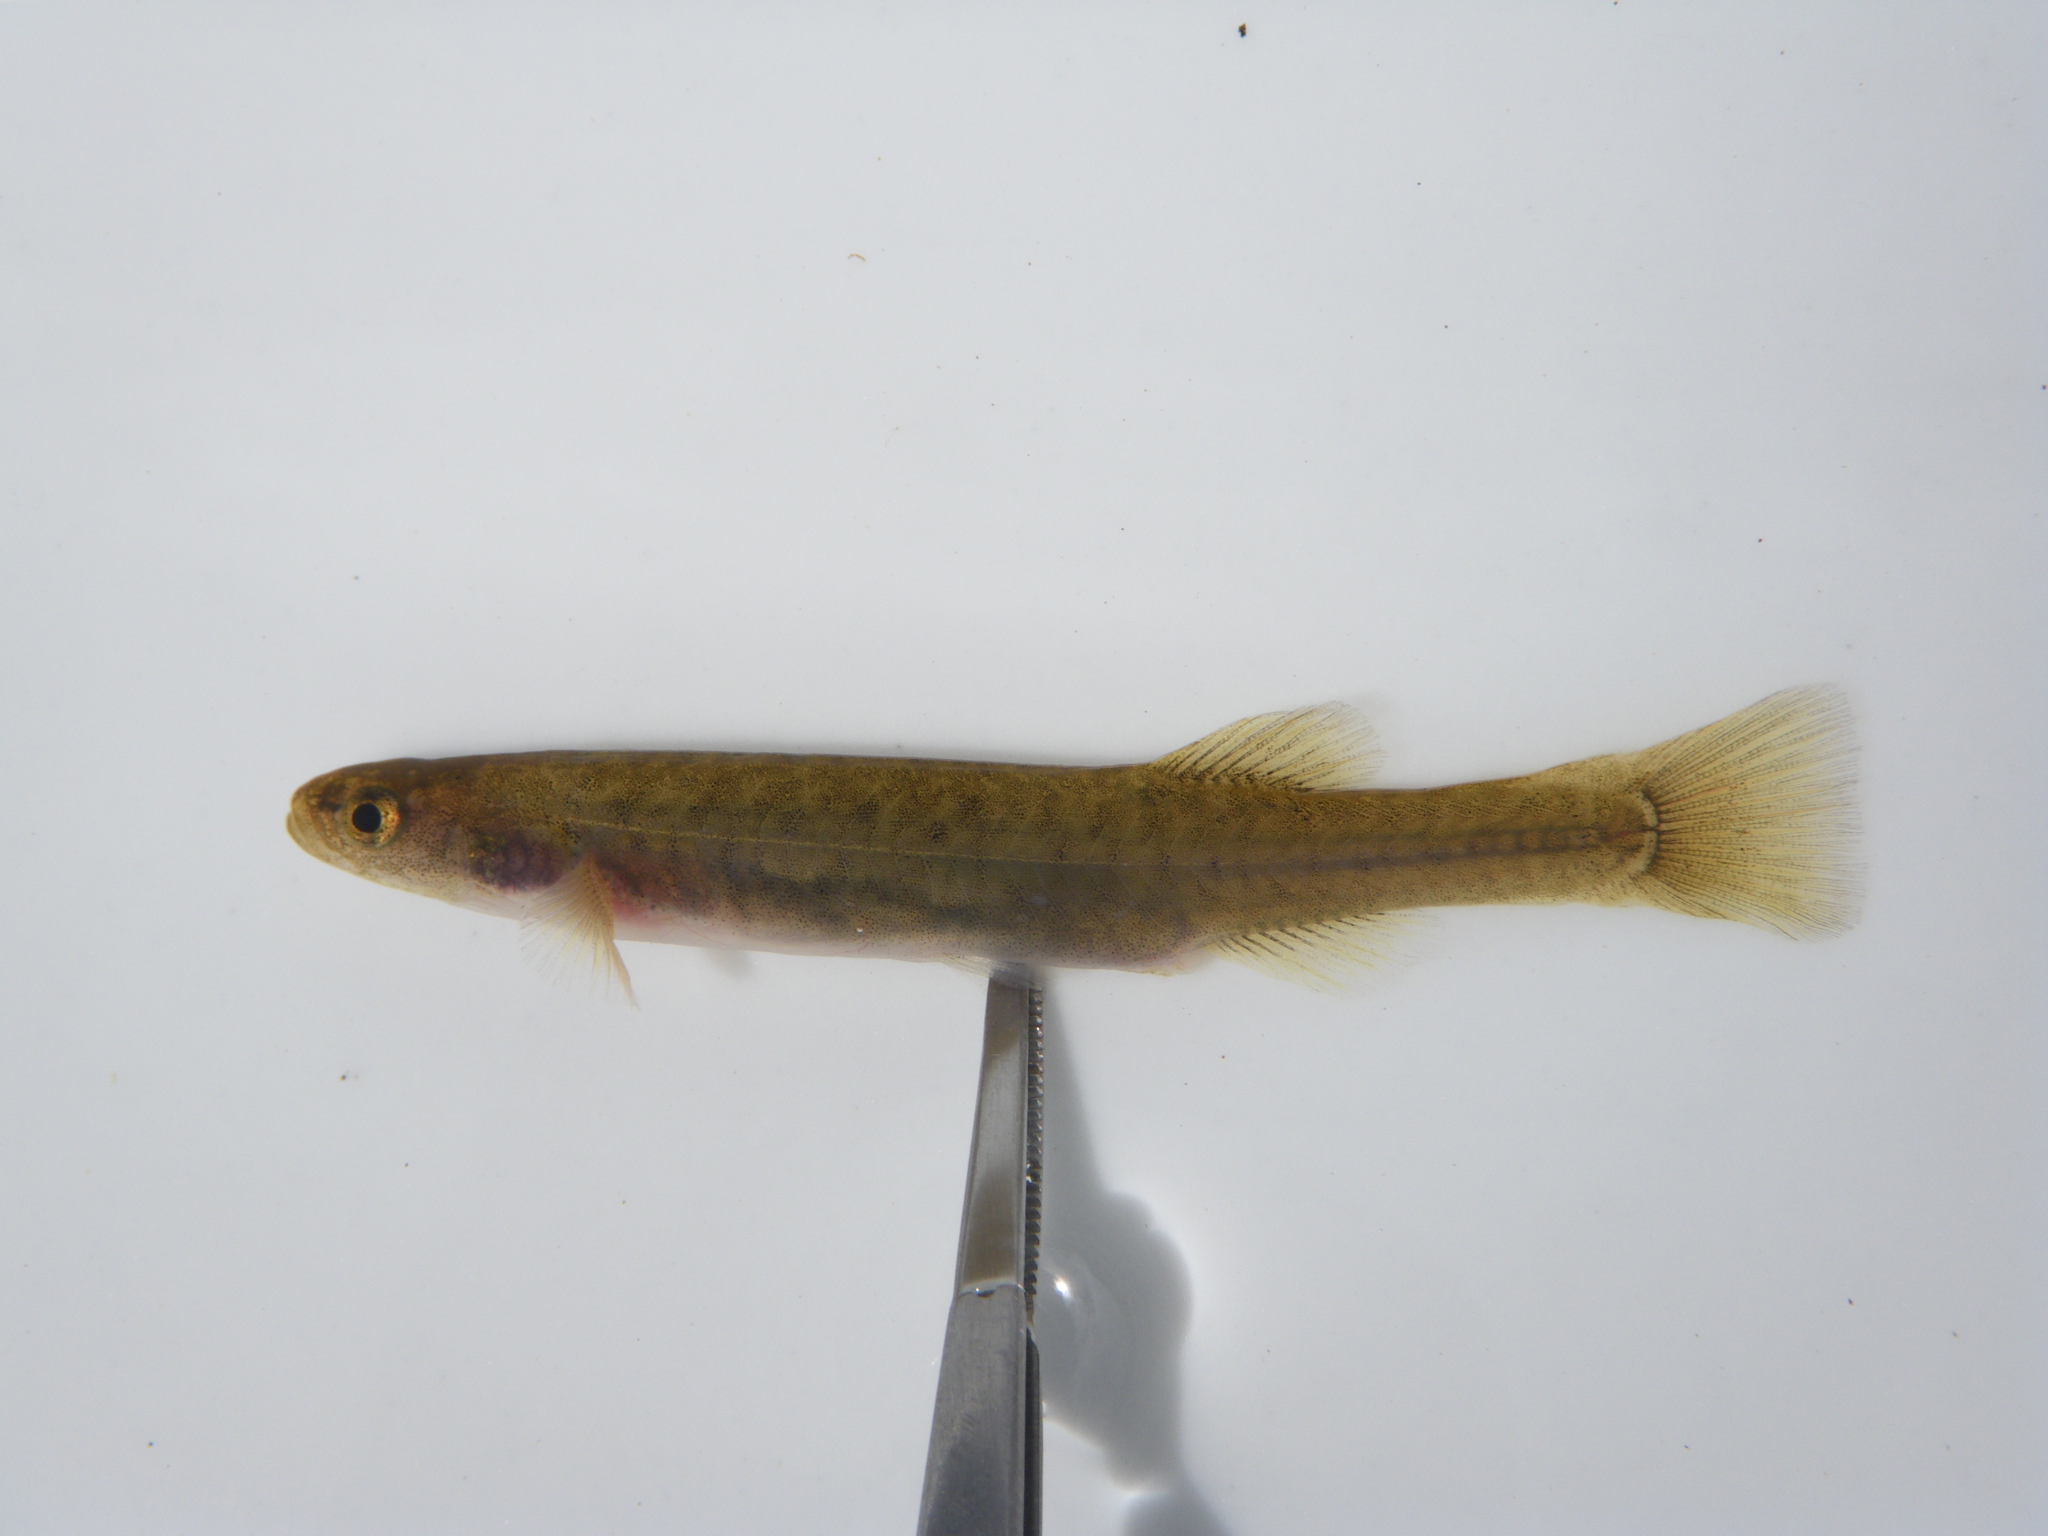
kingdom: Animalia
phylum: Chordata
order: Osmeriformes
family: Galaxiidae
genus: Galaxias
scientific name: Galaxias
